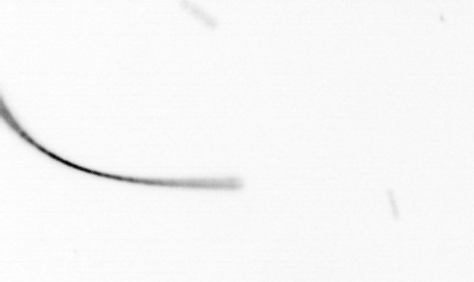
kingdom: Chromista
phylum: Ochrophyta
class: Bacillariophyceae
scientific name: Bacillariophyceae
